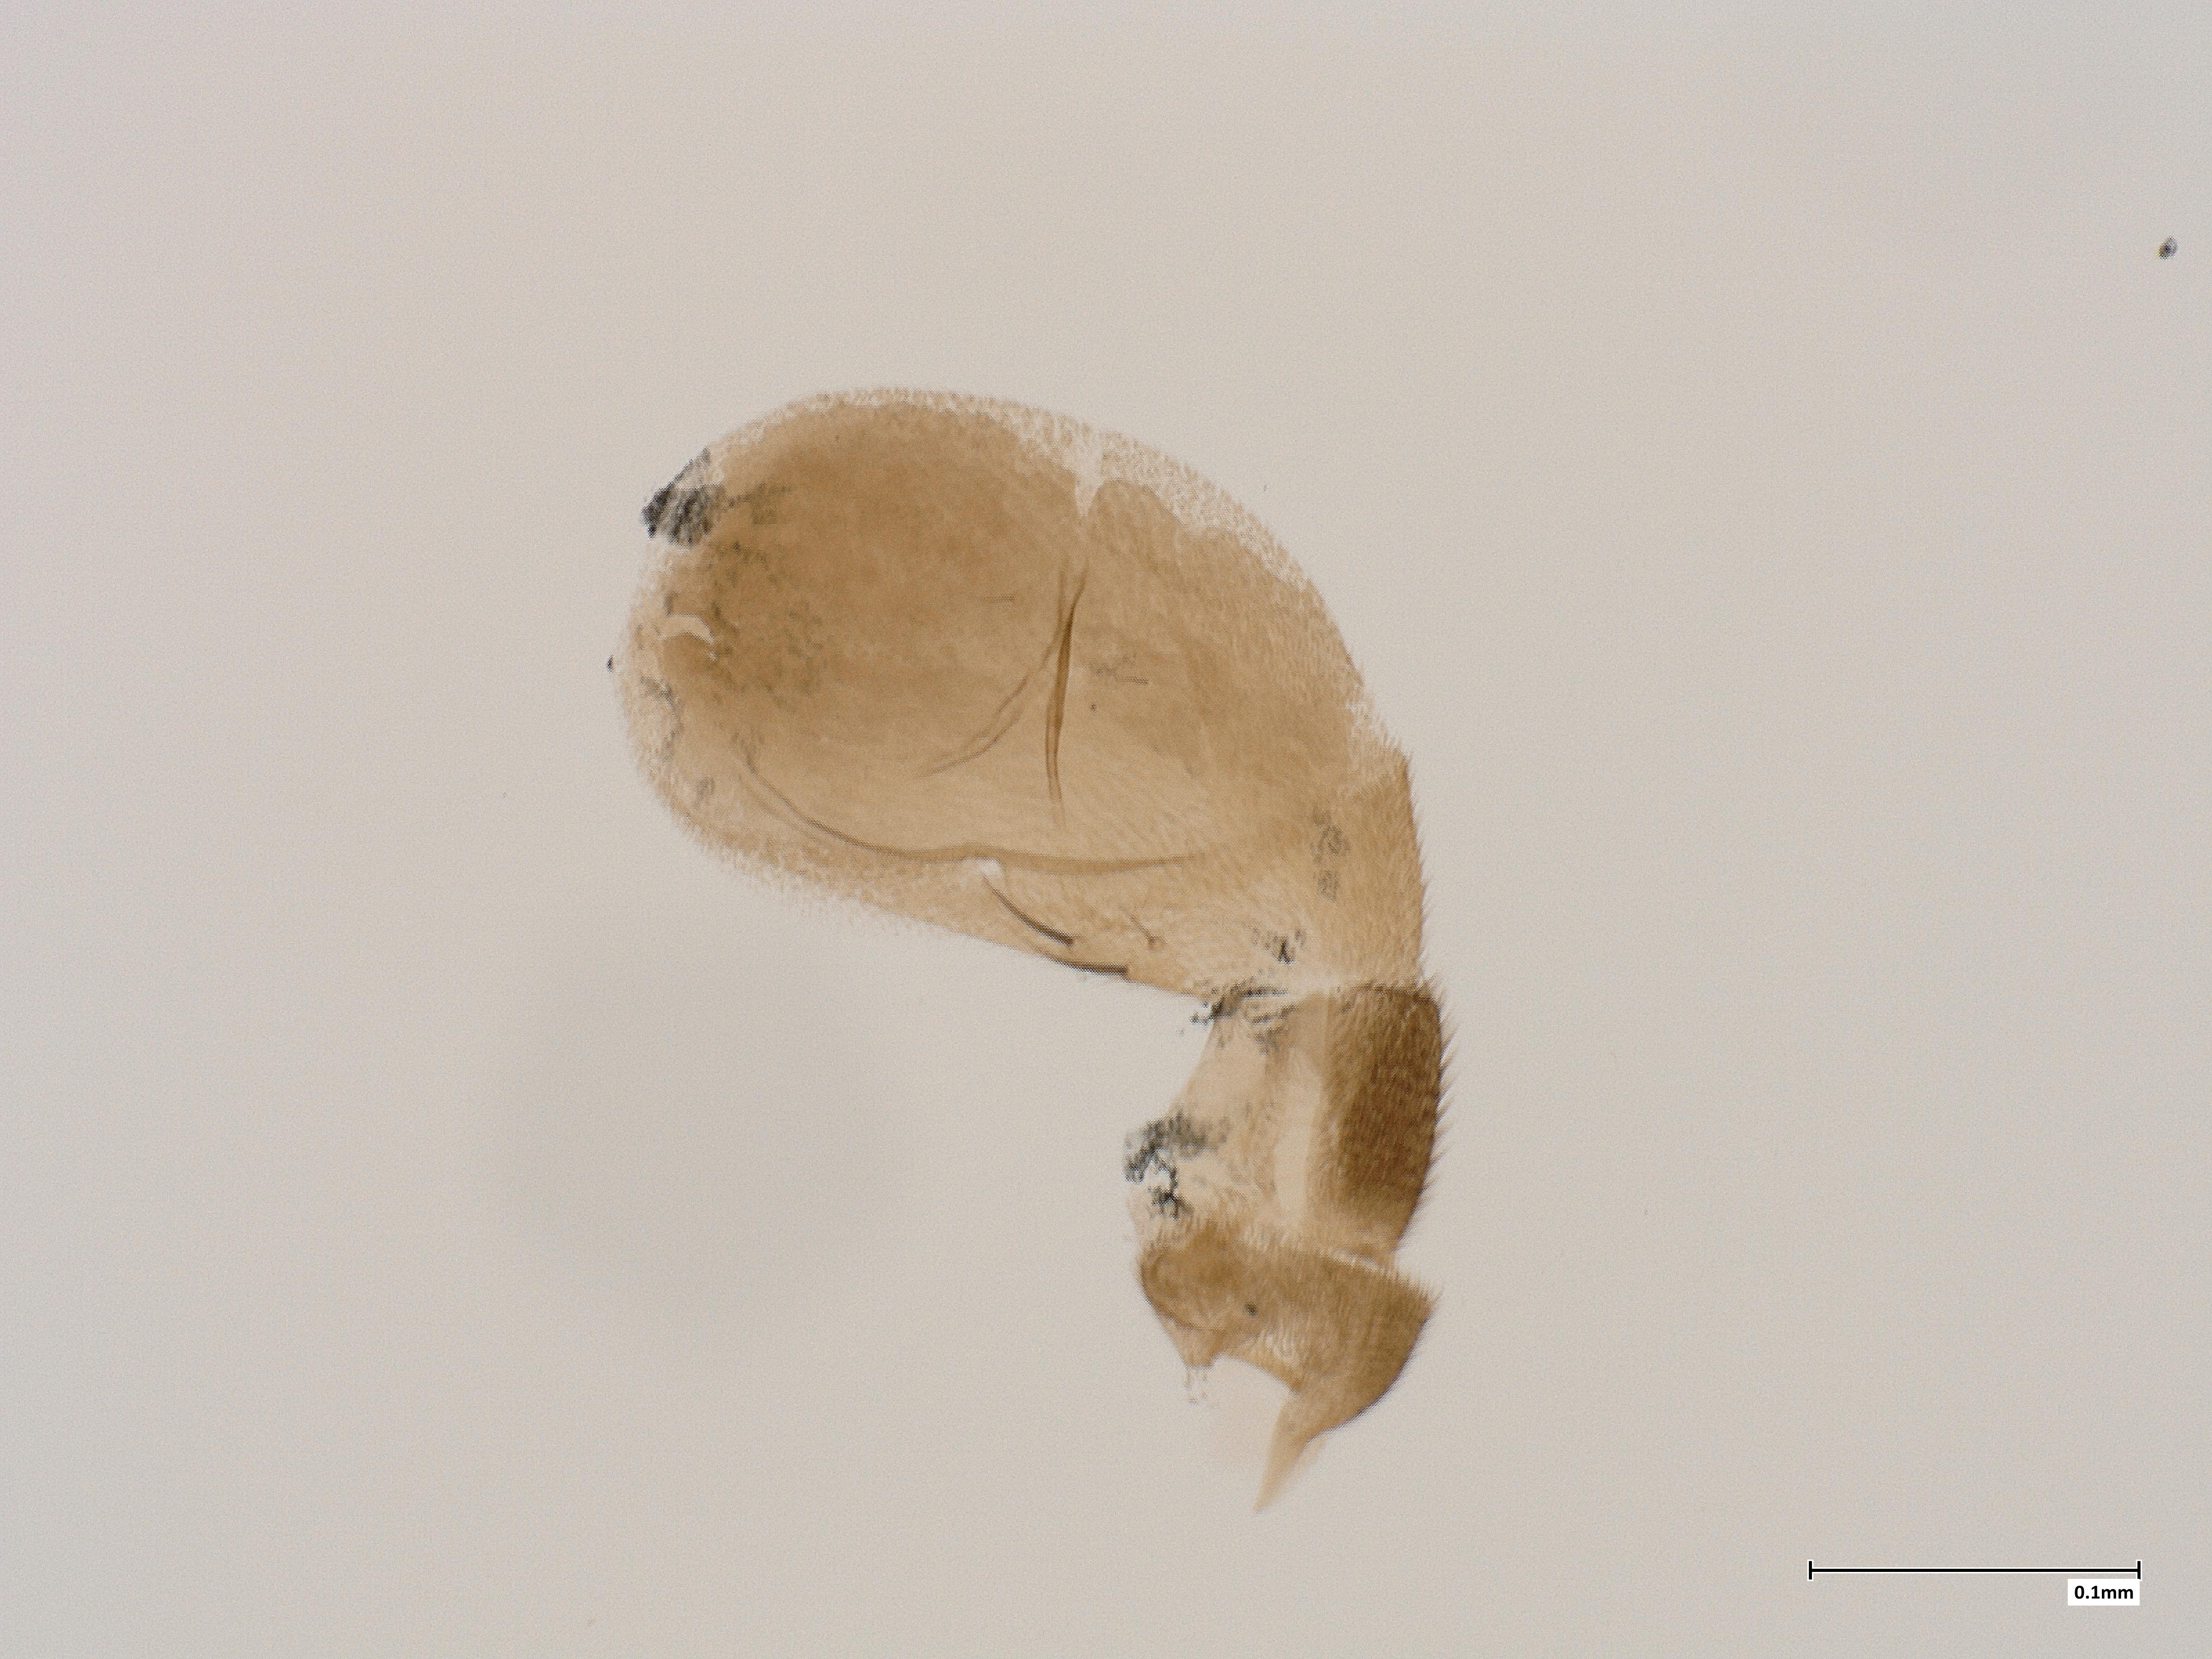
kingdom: Animalia
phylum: Arthropoda
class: Insecta
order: Diptera
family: Phoridae
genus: Megaselia
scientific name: Megaselia dubitalis
